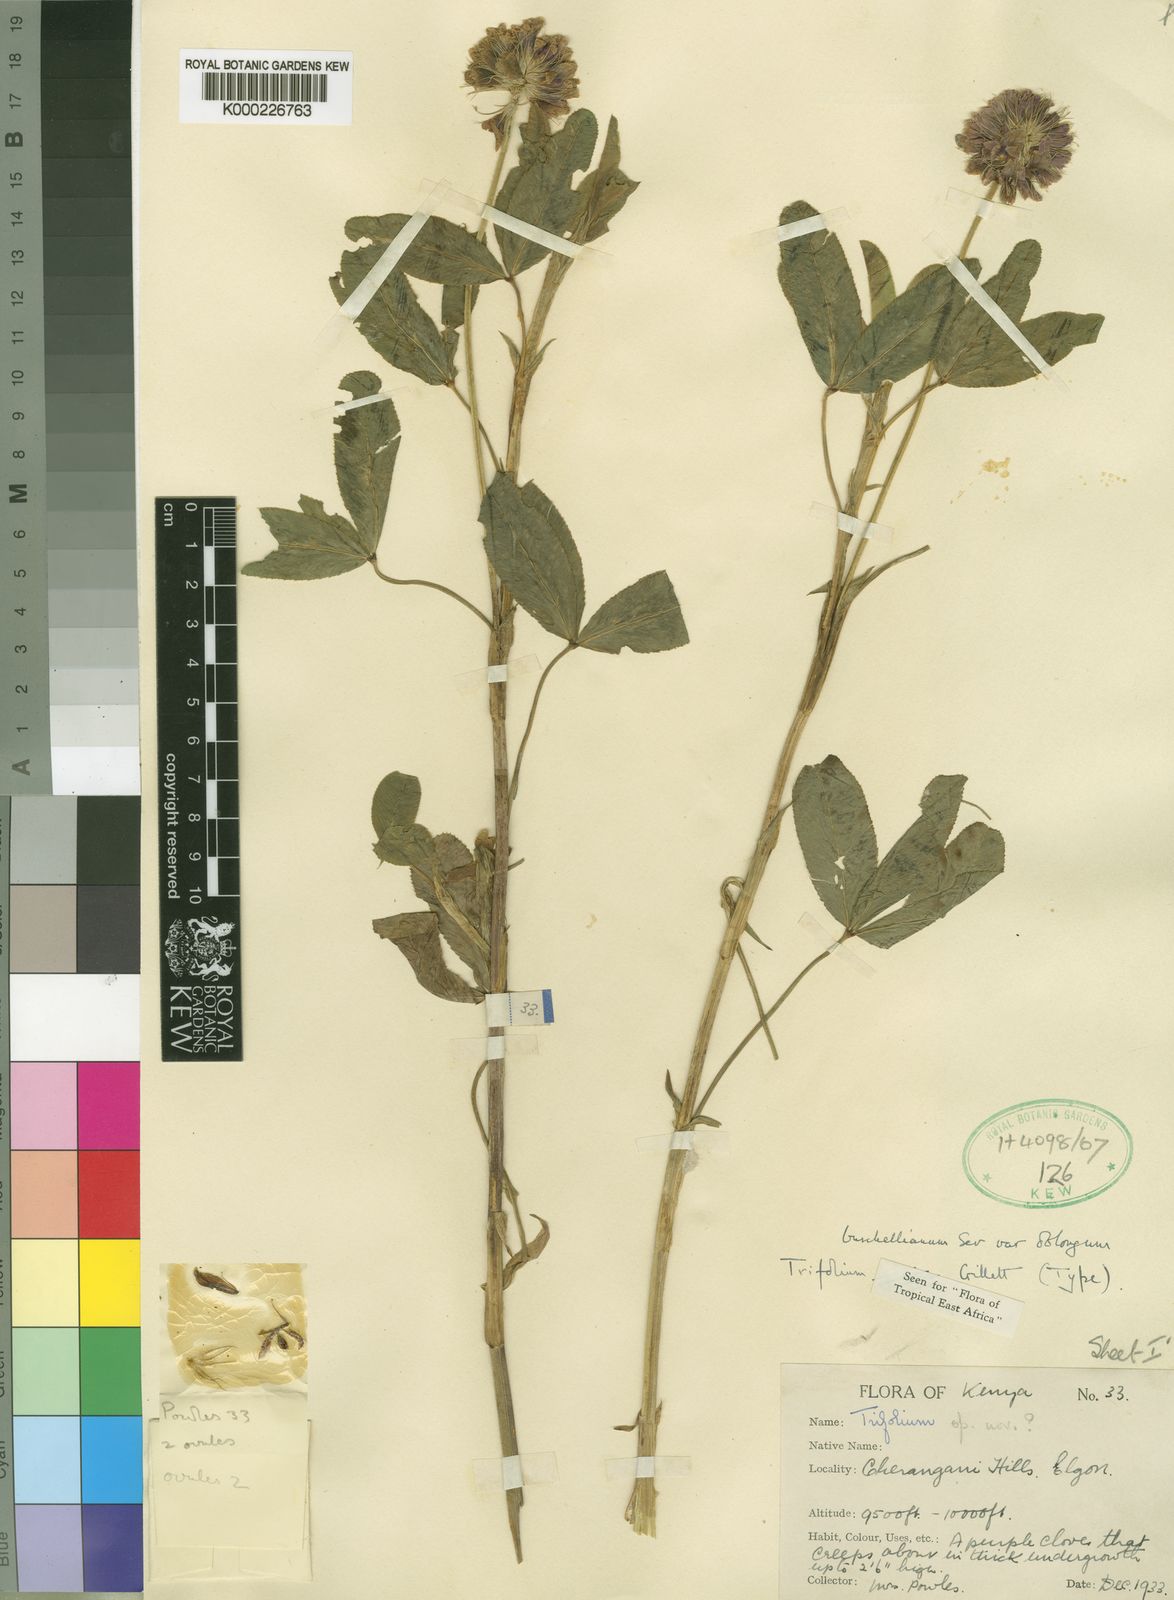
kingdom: Plantae
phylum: Tracheophyta
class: Magnoliopsida
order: Fabales
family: Fabaceae
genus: Trifolium
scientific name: Trifolium burchellianum
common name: Burchell's clover
